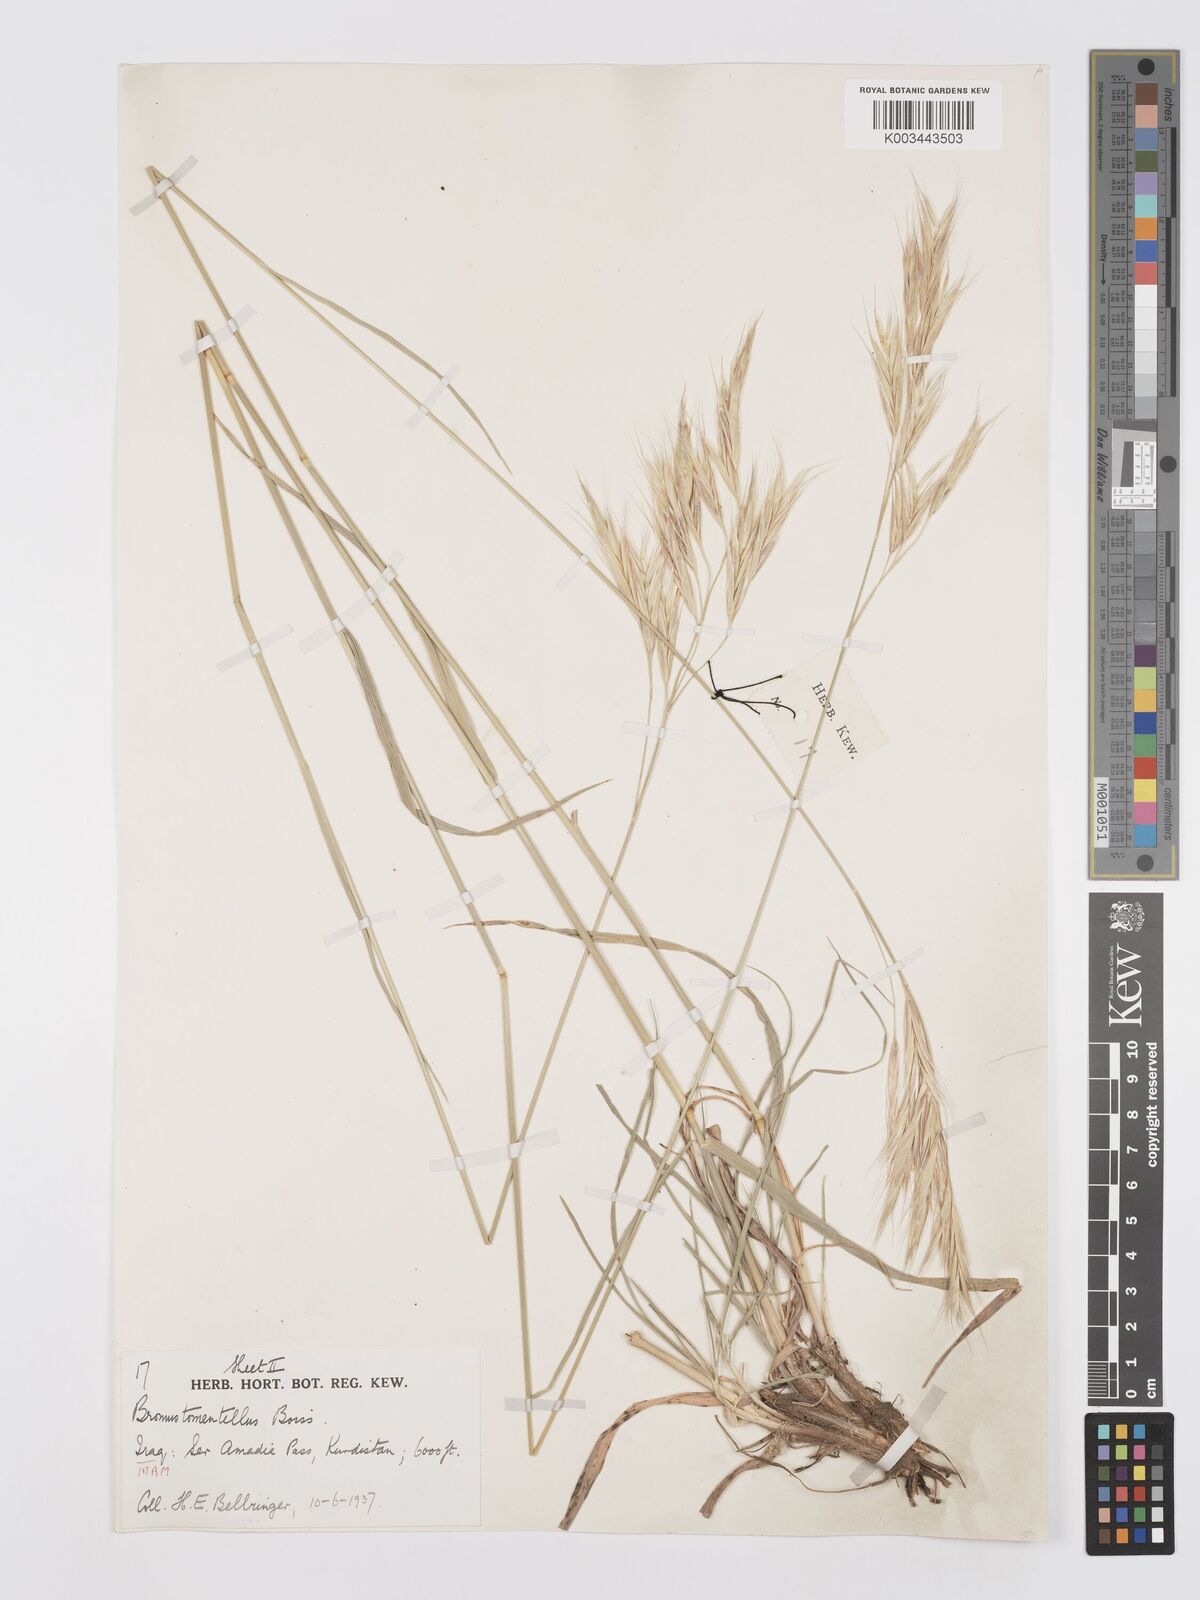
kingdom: Plantae
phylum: Tracheophyta
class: Liliopsida
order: Poales
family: Poaceae
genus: Bromus
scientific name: Bromus tomentellus
